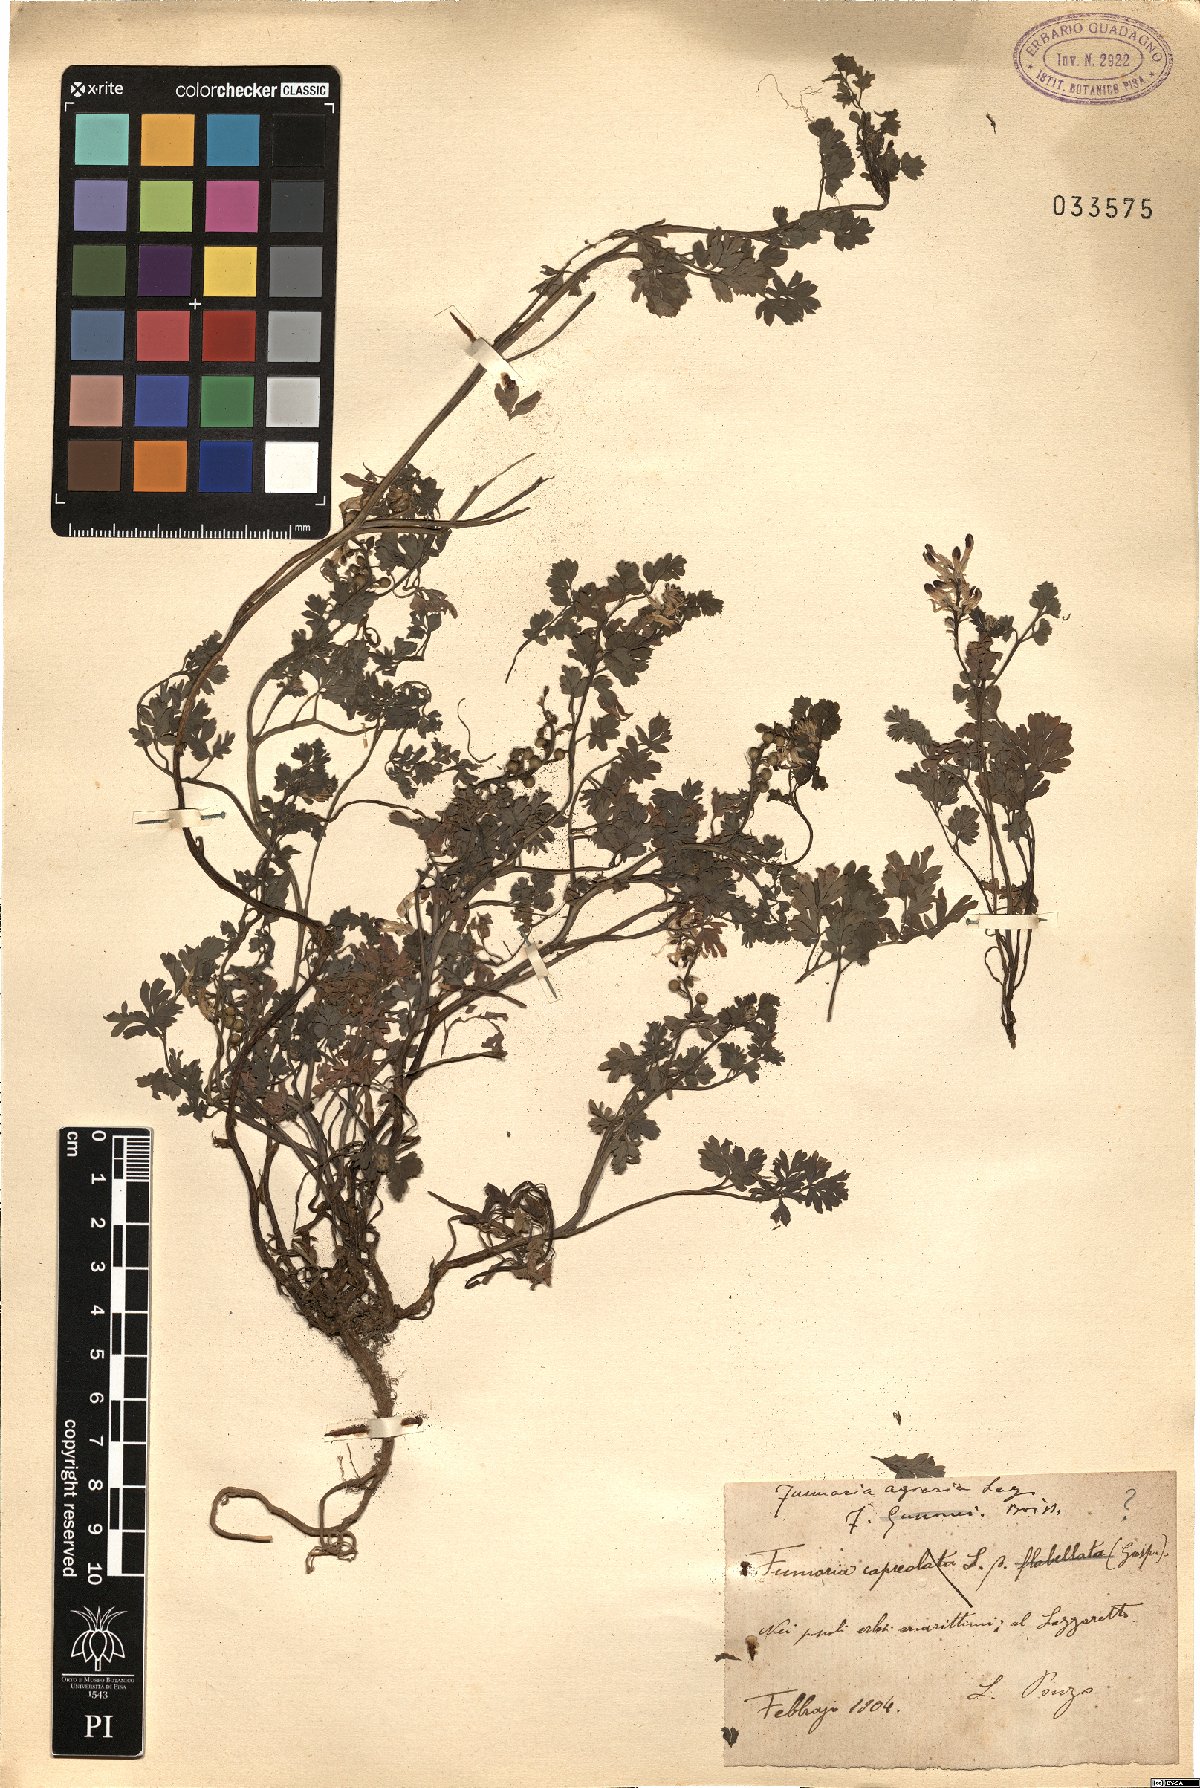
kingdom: Plantae
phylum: Tracheophyta
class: Magnoliopsida
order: Ranunculales
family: Papaveraceae
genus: Fumaria
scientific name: Fumaria agraria
